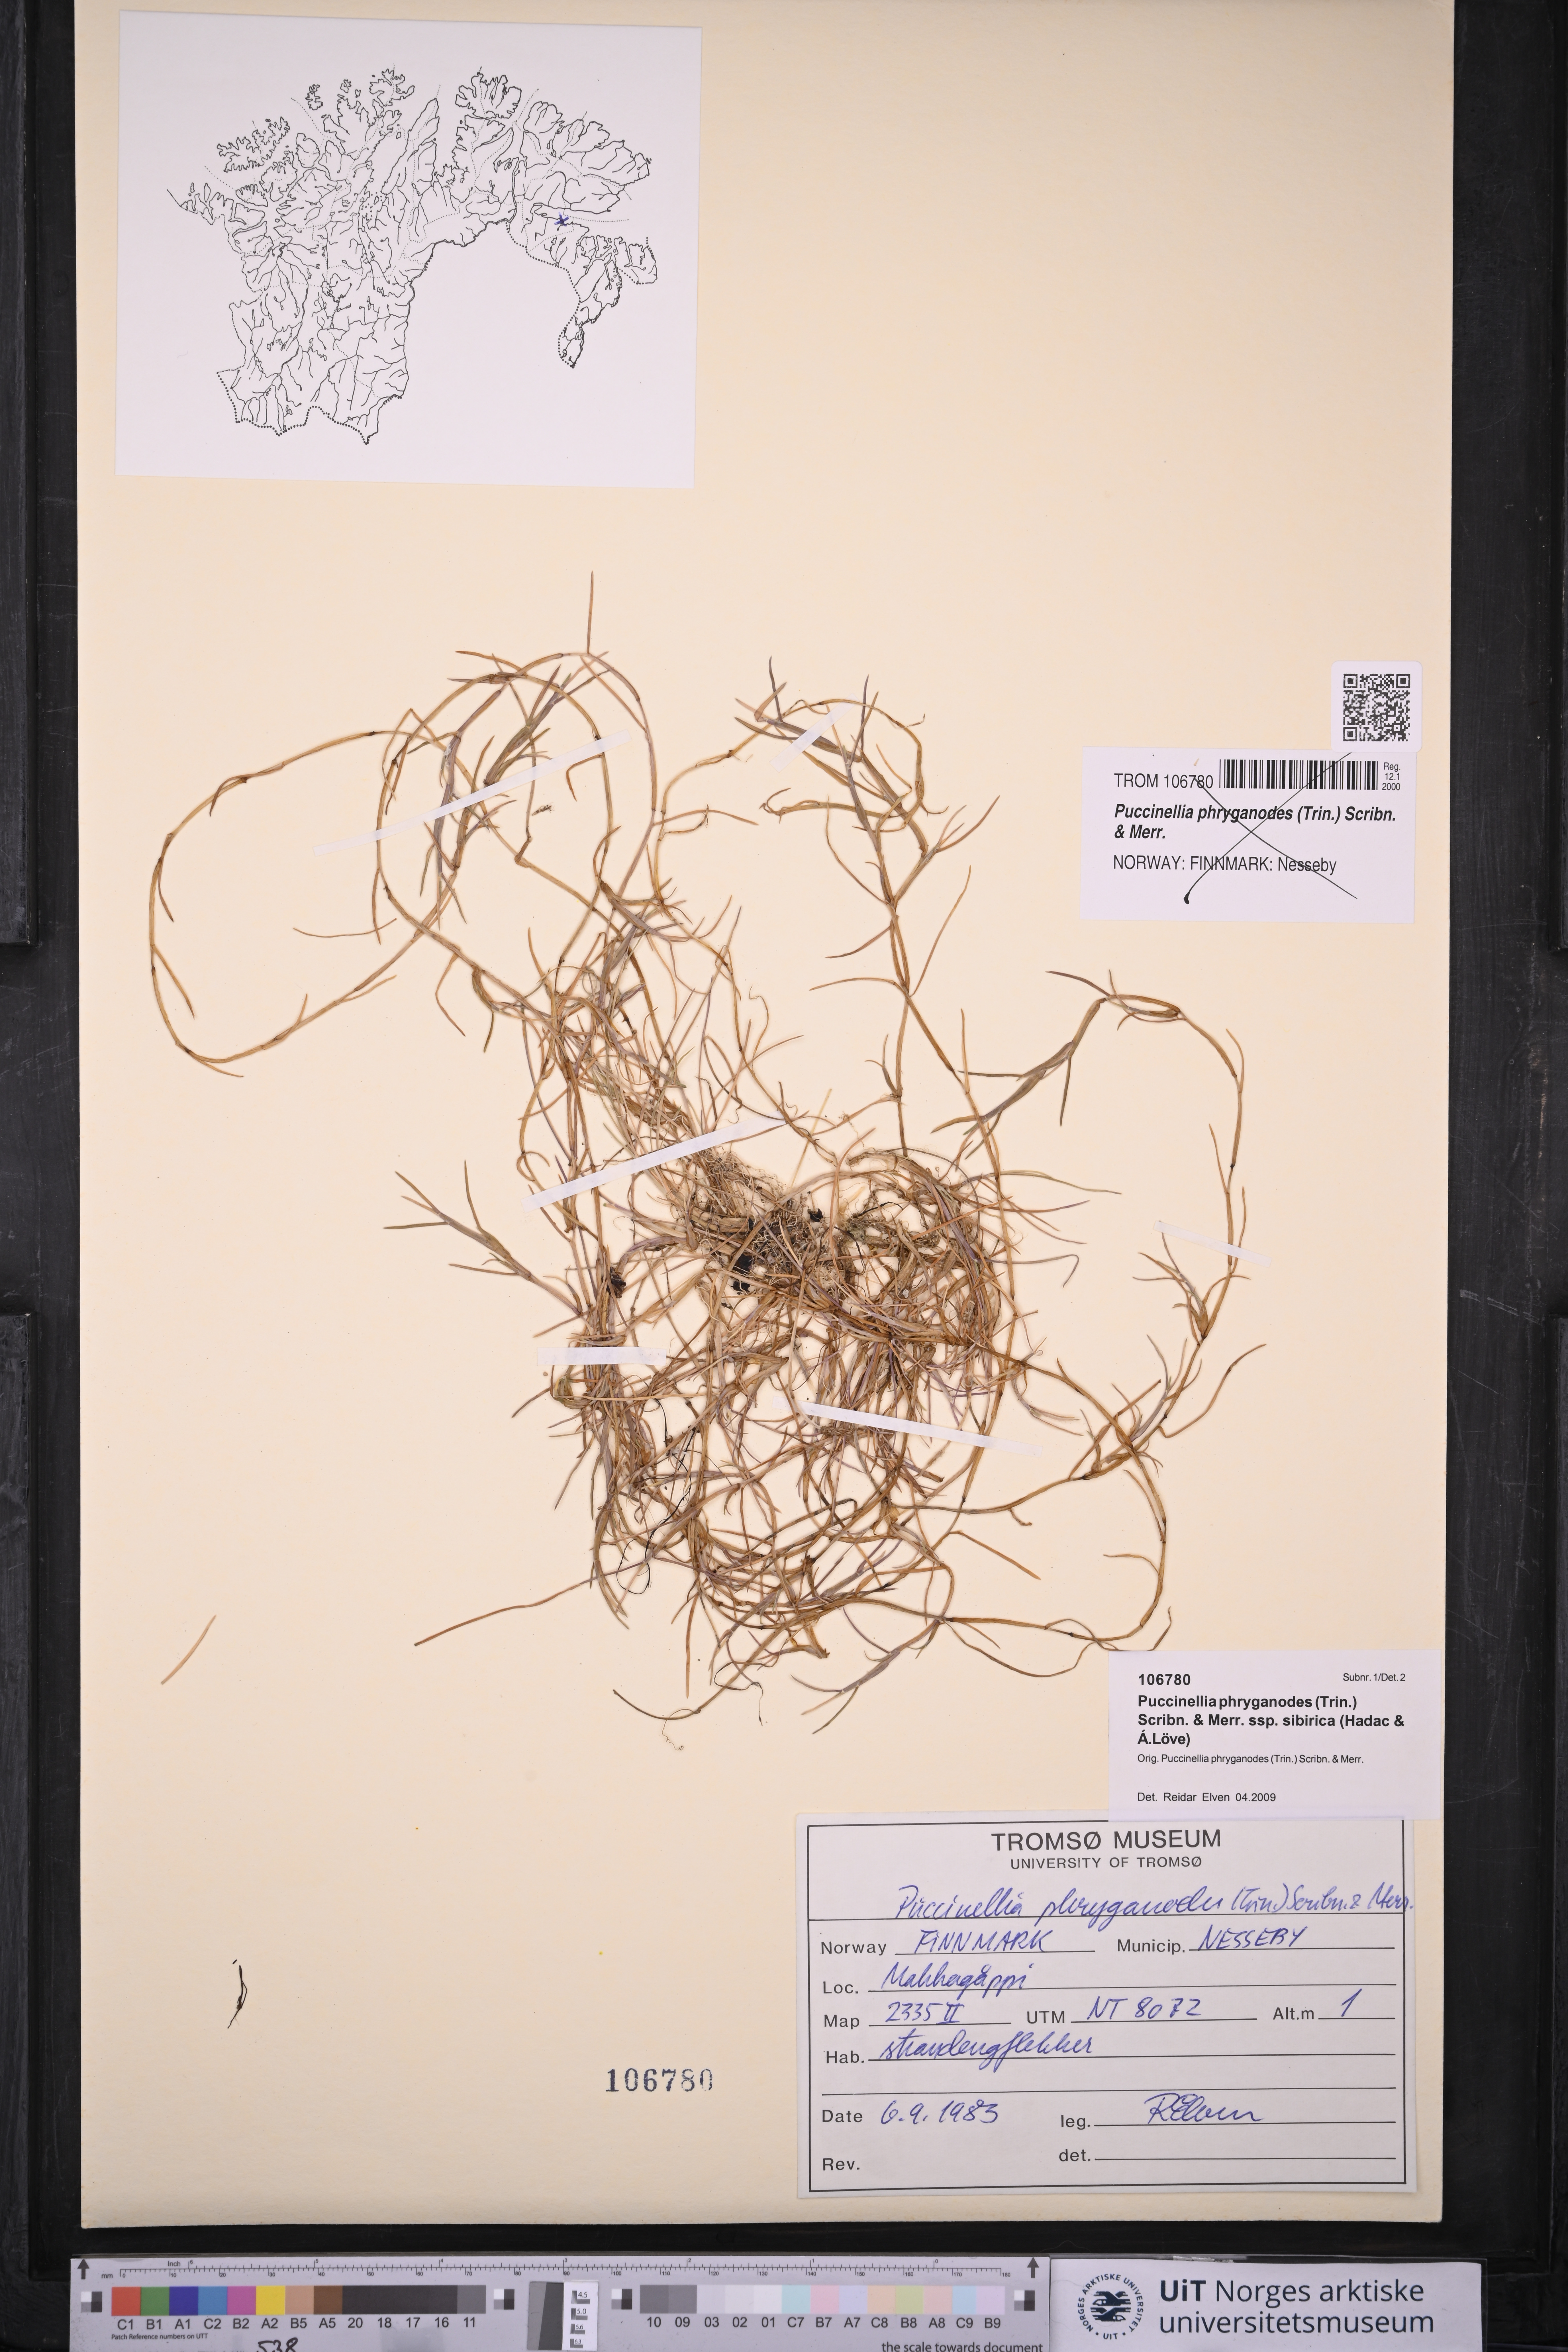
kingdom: Plantae
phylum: Tracheophyta
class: Liliopsida
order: Poales
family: Poaceae
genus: Puccinellia
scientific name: Puccinellia phryganodes
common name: Creeping alkaligrass
